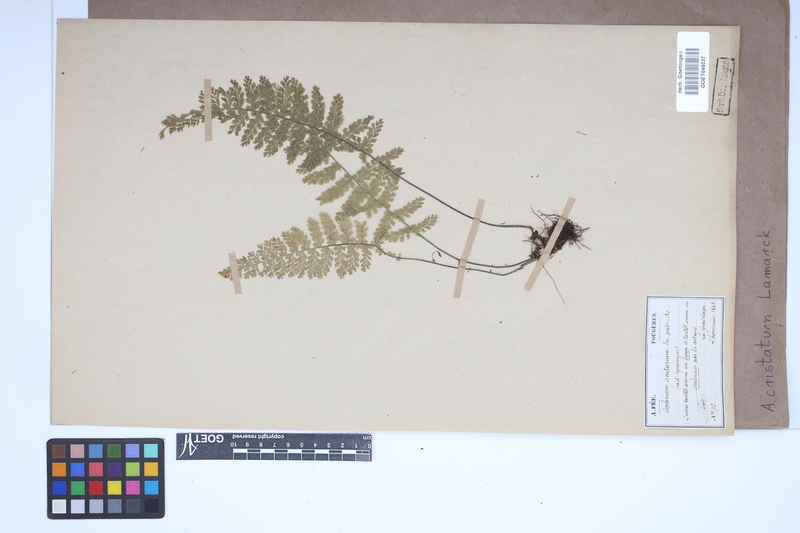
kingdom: Plantae
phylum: Tracheophyta
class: Polypodiopsida
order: Polypodiales
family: Aspleniaceae
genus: Asplenium
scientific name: Asplenium cristatum
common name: Parsley spleenwort
